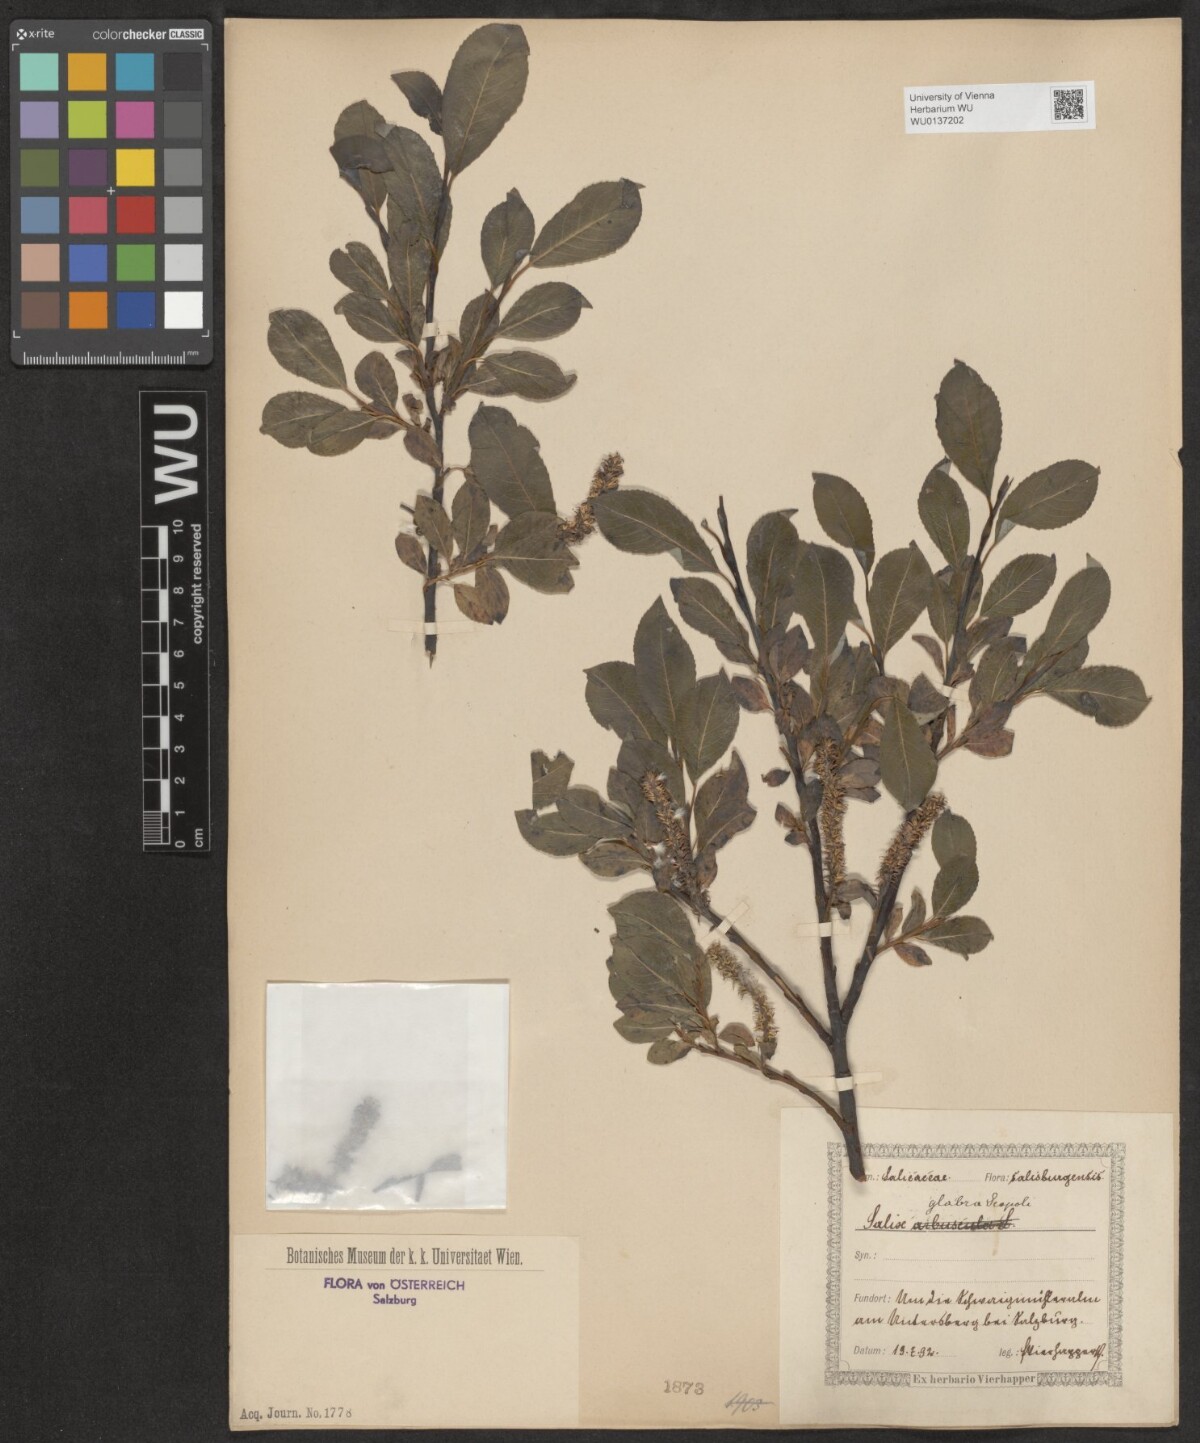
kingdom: Plantae
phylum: Tracheophyta
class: Magnoliopsida
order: Malpighiales
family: Salicaceae
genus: Salix
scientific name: Salix glabra
